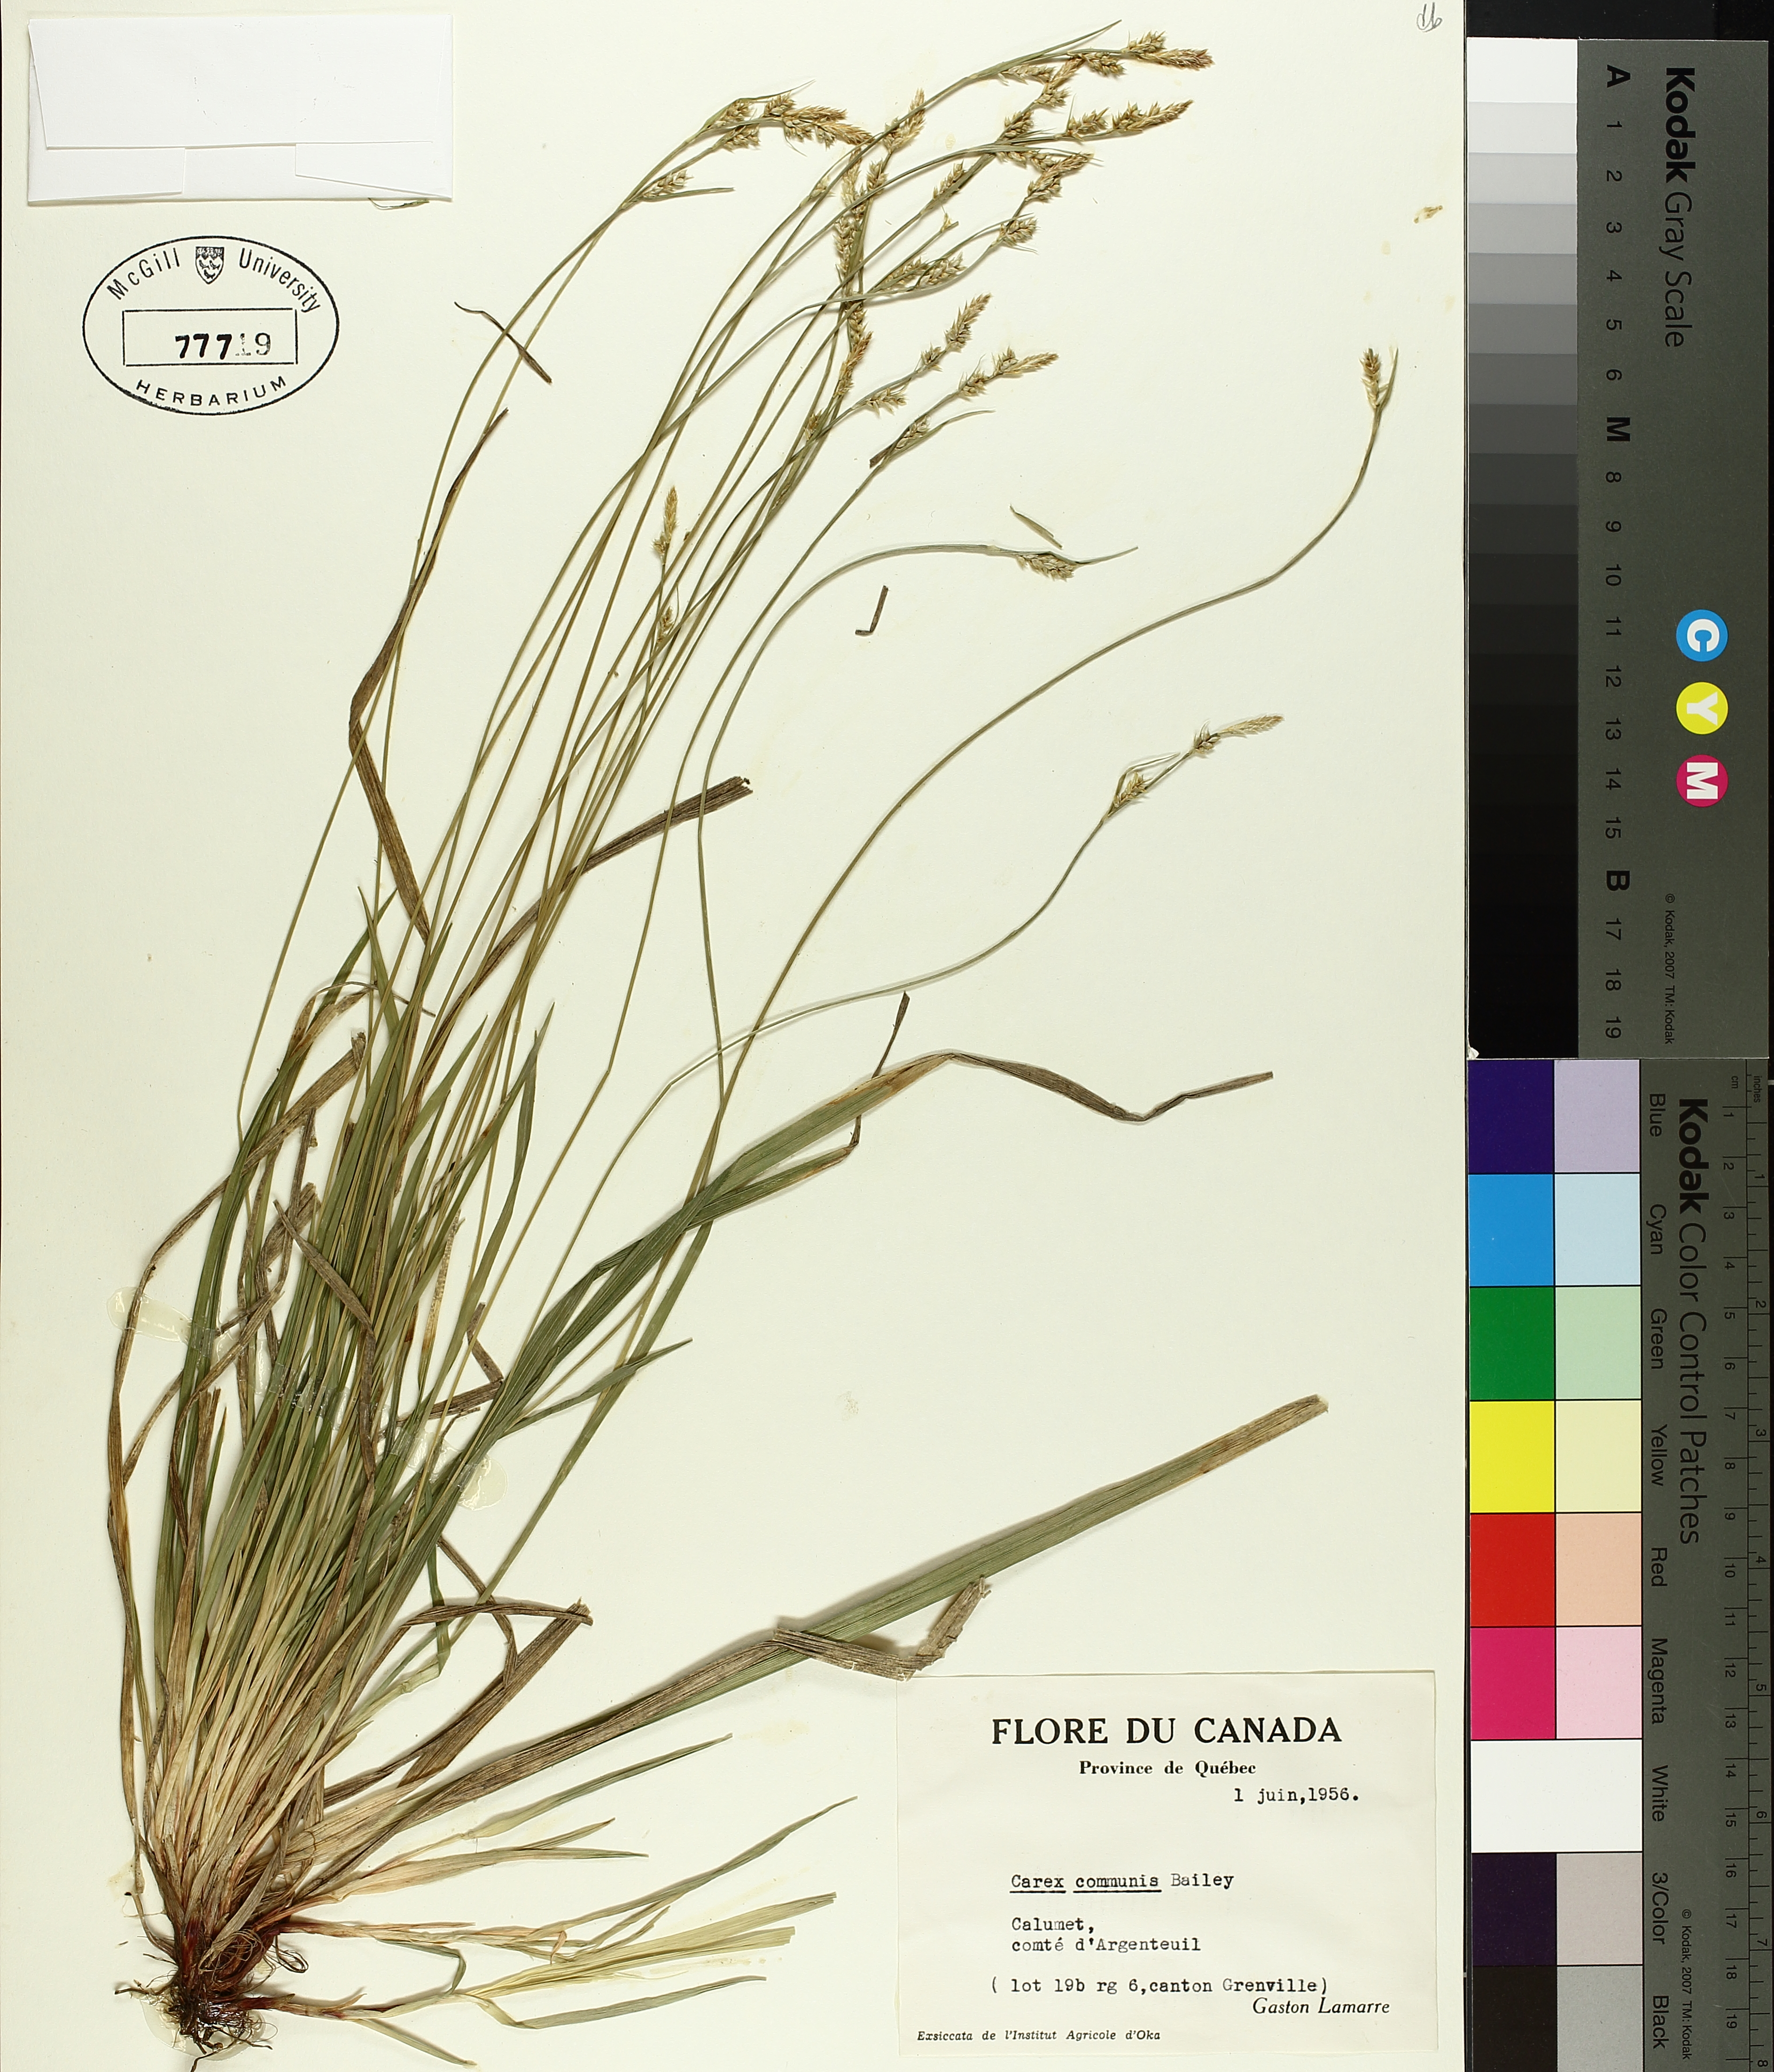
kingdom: Plantae
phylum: Tracheophyta
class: Liliopsida
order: Poales
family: Cyperaceae
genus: Carex
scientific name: Carex communis
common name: Colonial oak sedge
